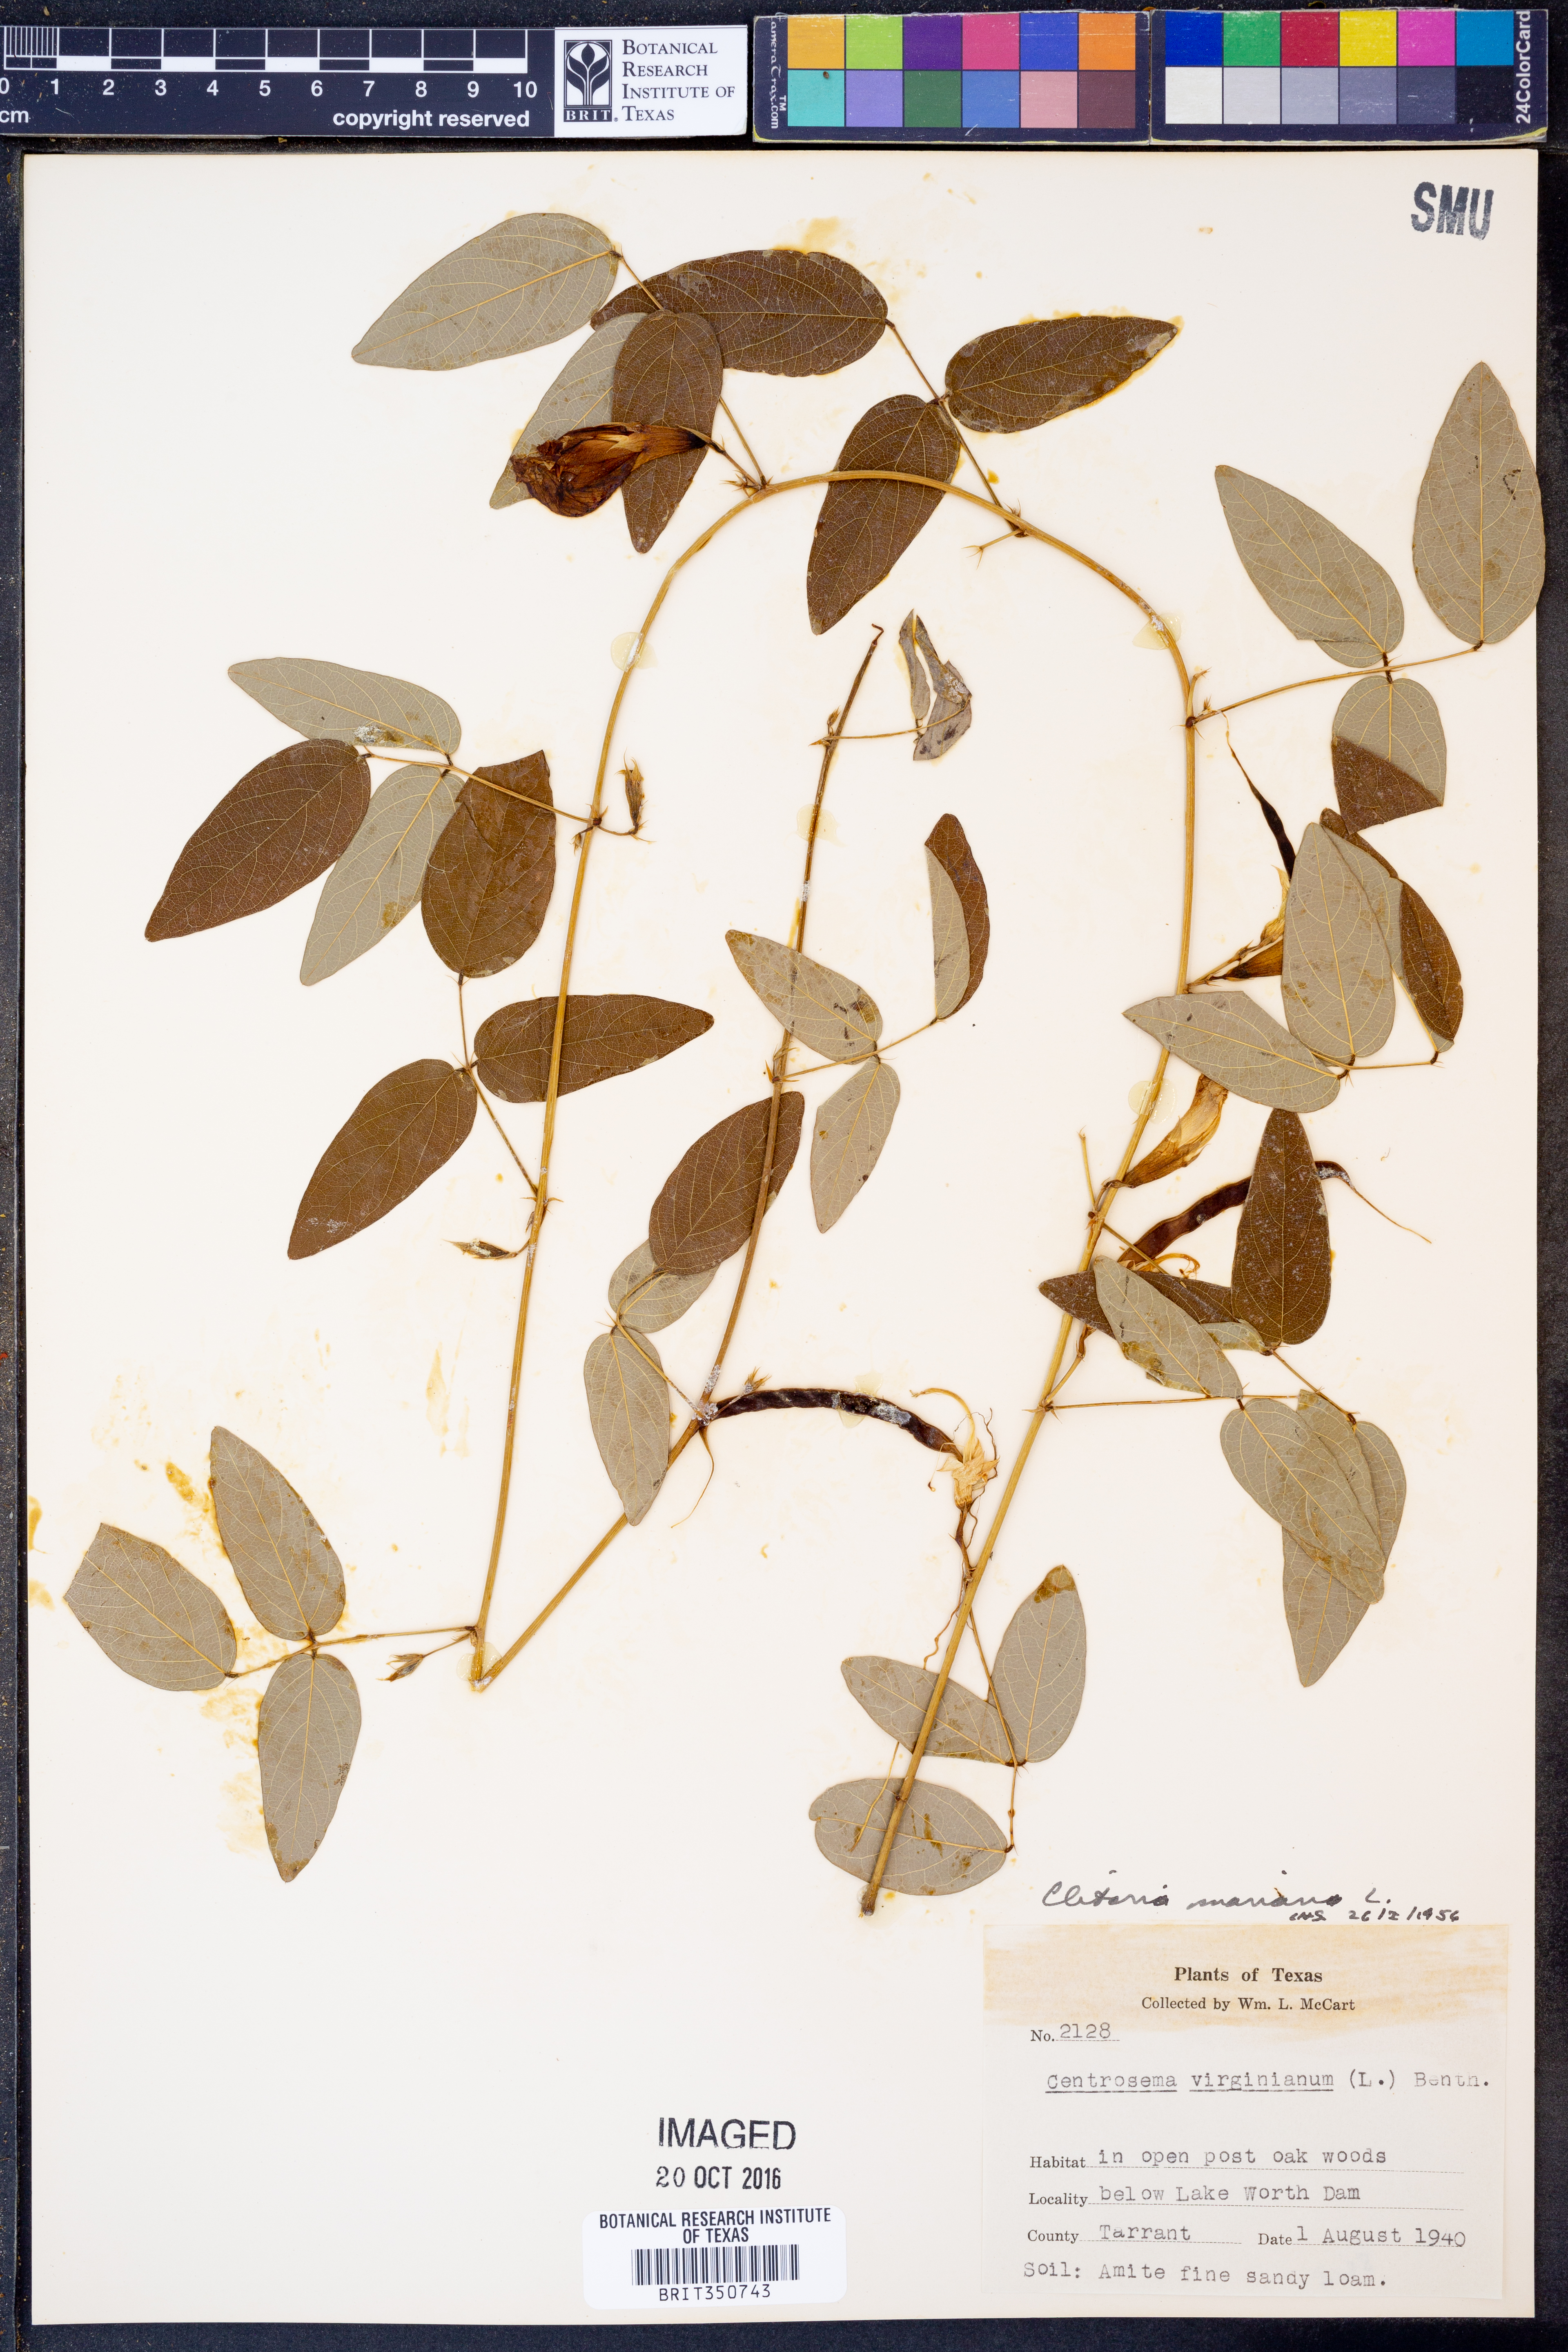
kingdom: Plantae
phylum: Tracheophyta
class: Magnoliopsida
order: Fabales
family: Fabaceae
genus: Clitoria
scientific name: Clitoria mariana
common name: Butterfly-pea
